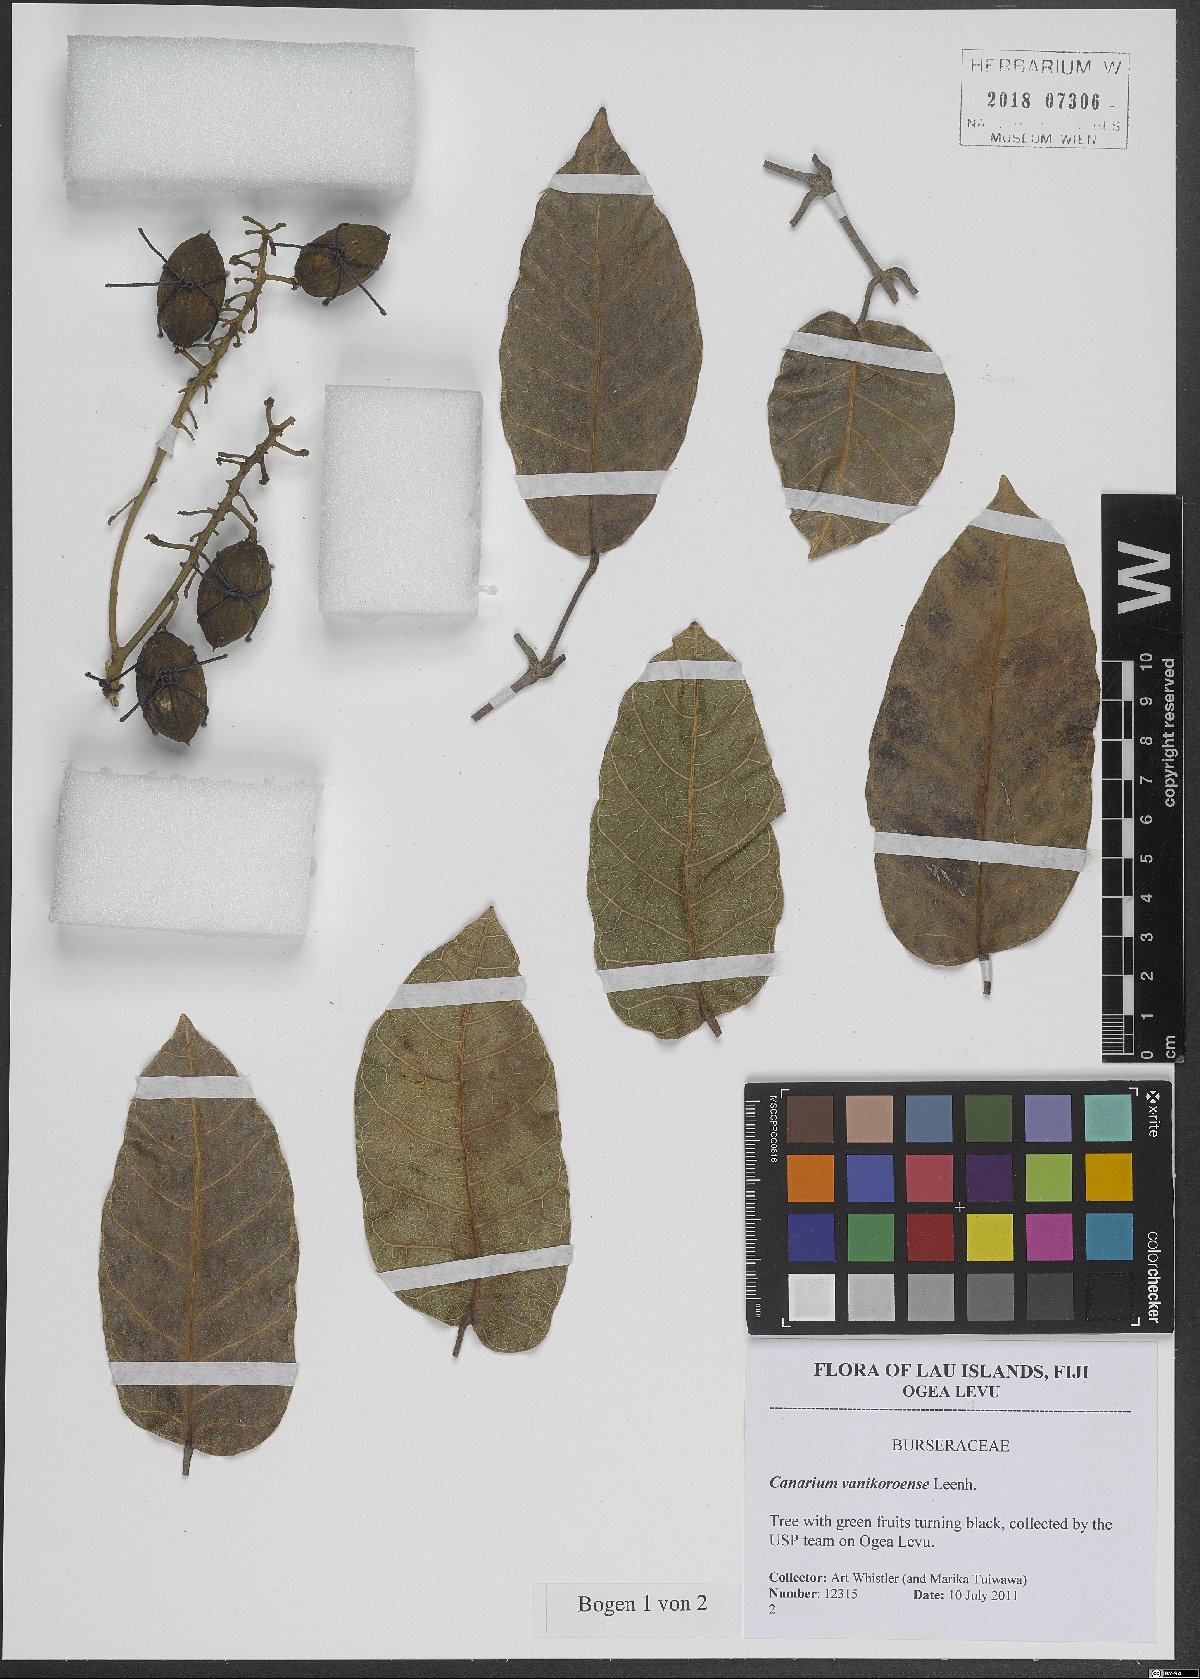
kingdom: Plantae
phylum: Tracheophyta
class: Magnoliopsida
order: Sapindales
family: Burseraceae
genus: Canarium
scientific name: Canarium vanikoroense
